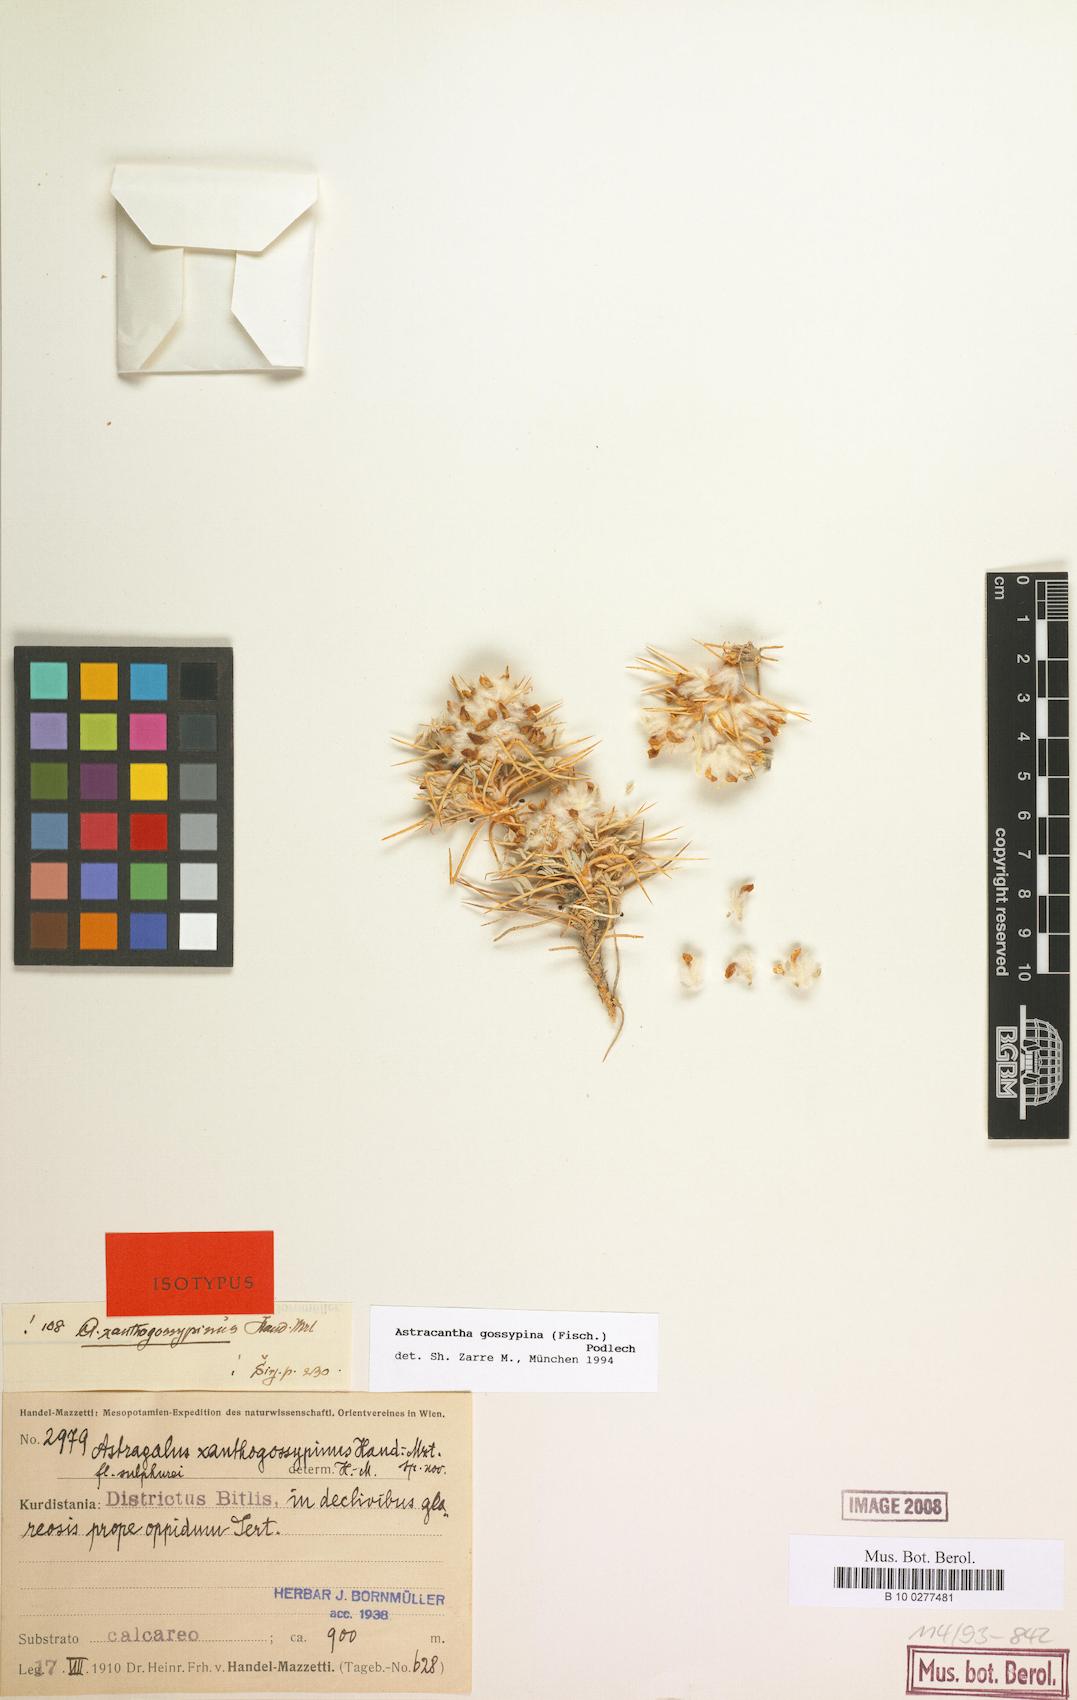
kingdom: Plantae
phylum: Tracheophyta
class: Magnoliopsida
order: Fabales
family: Fabaceae
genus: Astragalus
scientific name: Astragalus gossypinus
